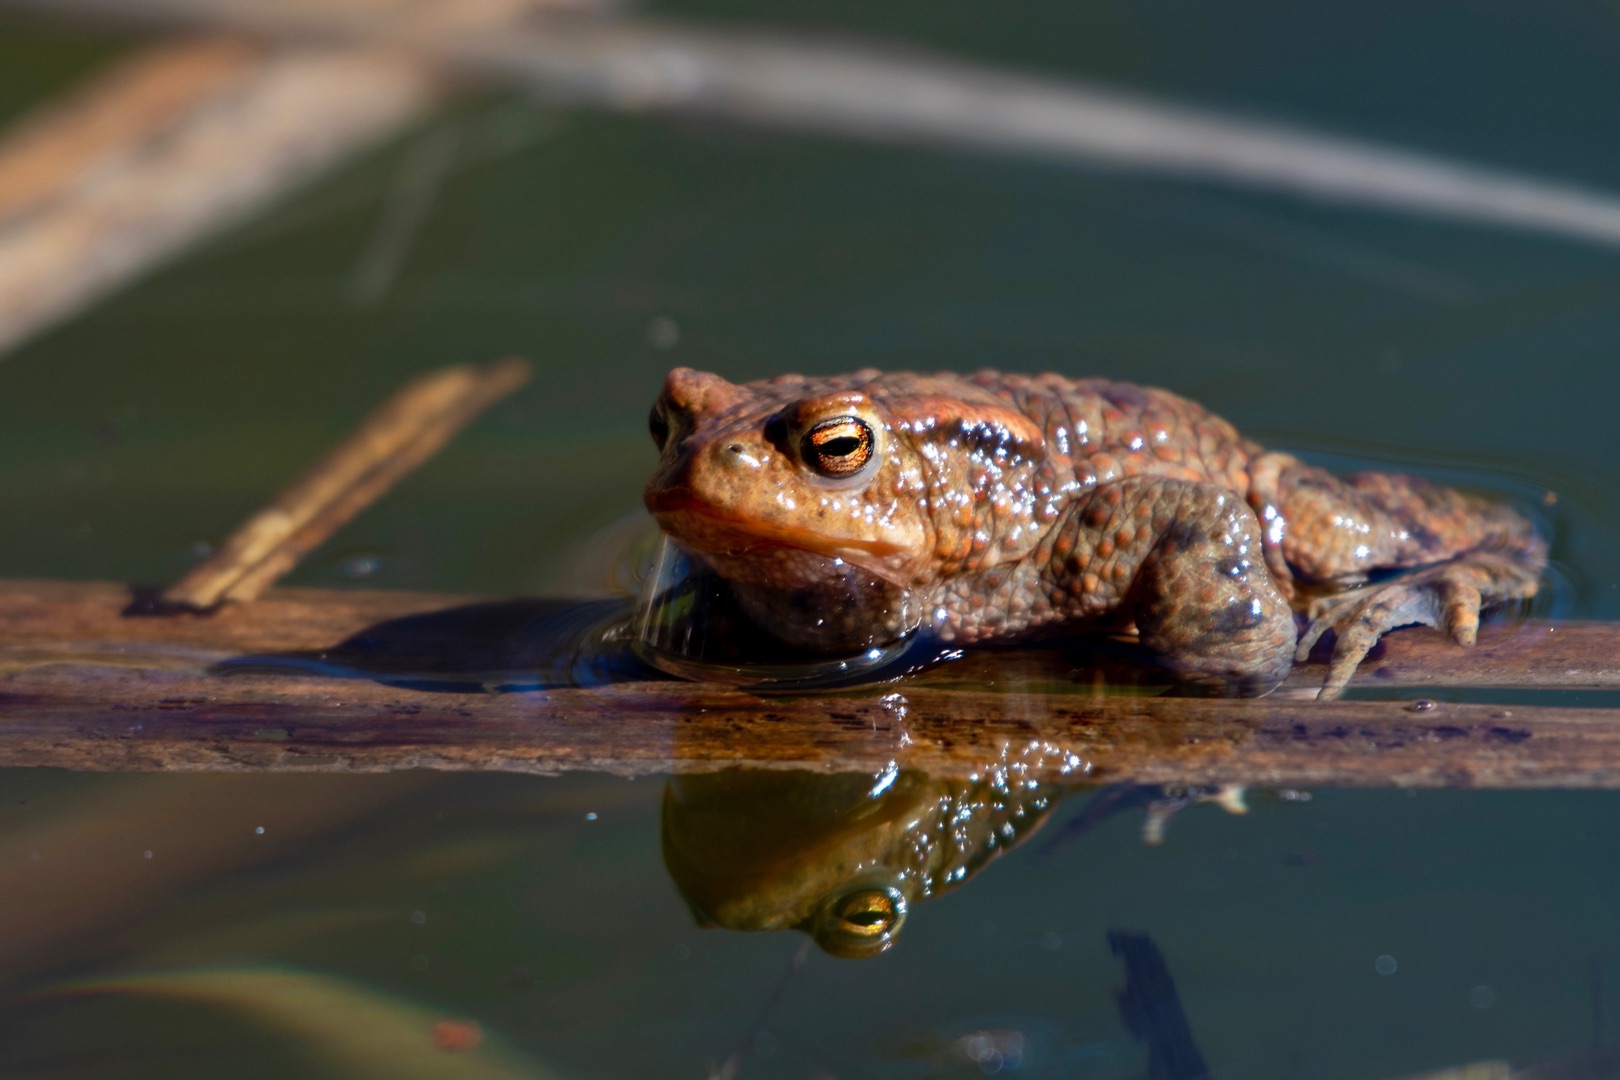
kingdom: Animalia
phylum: Chordata
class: Amphibia
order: Anura
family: Bufonidae
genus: Bufo
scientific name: Bufo bufo
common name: Skrubtudse
